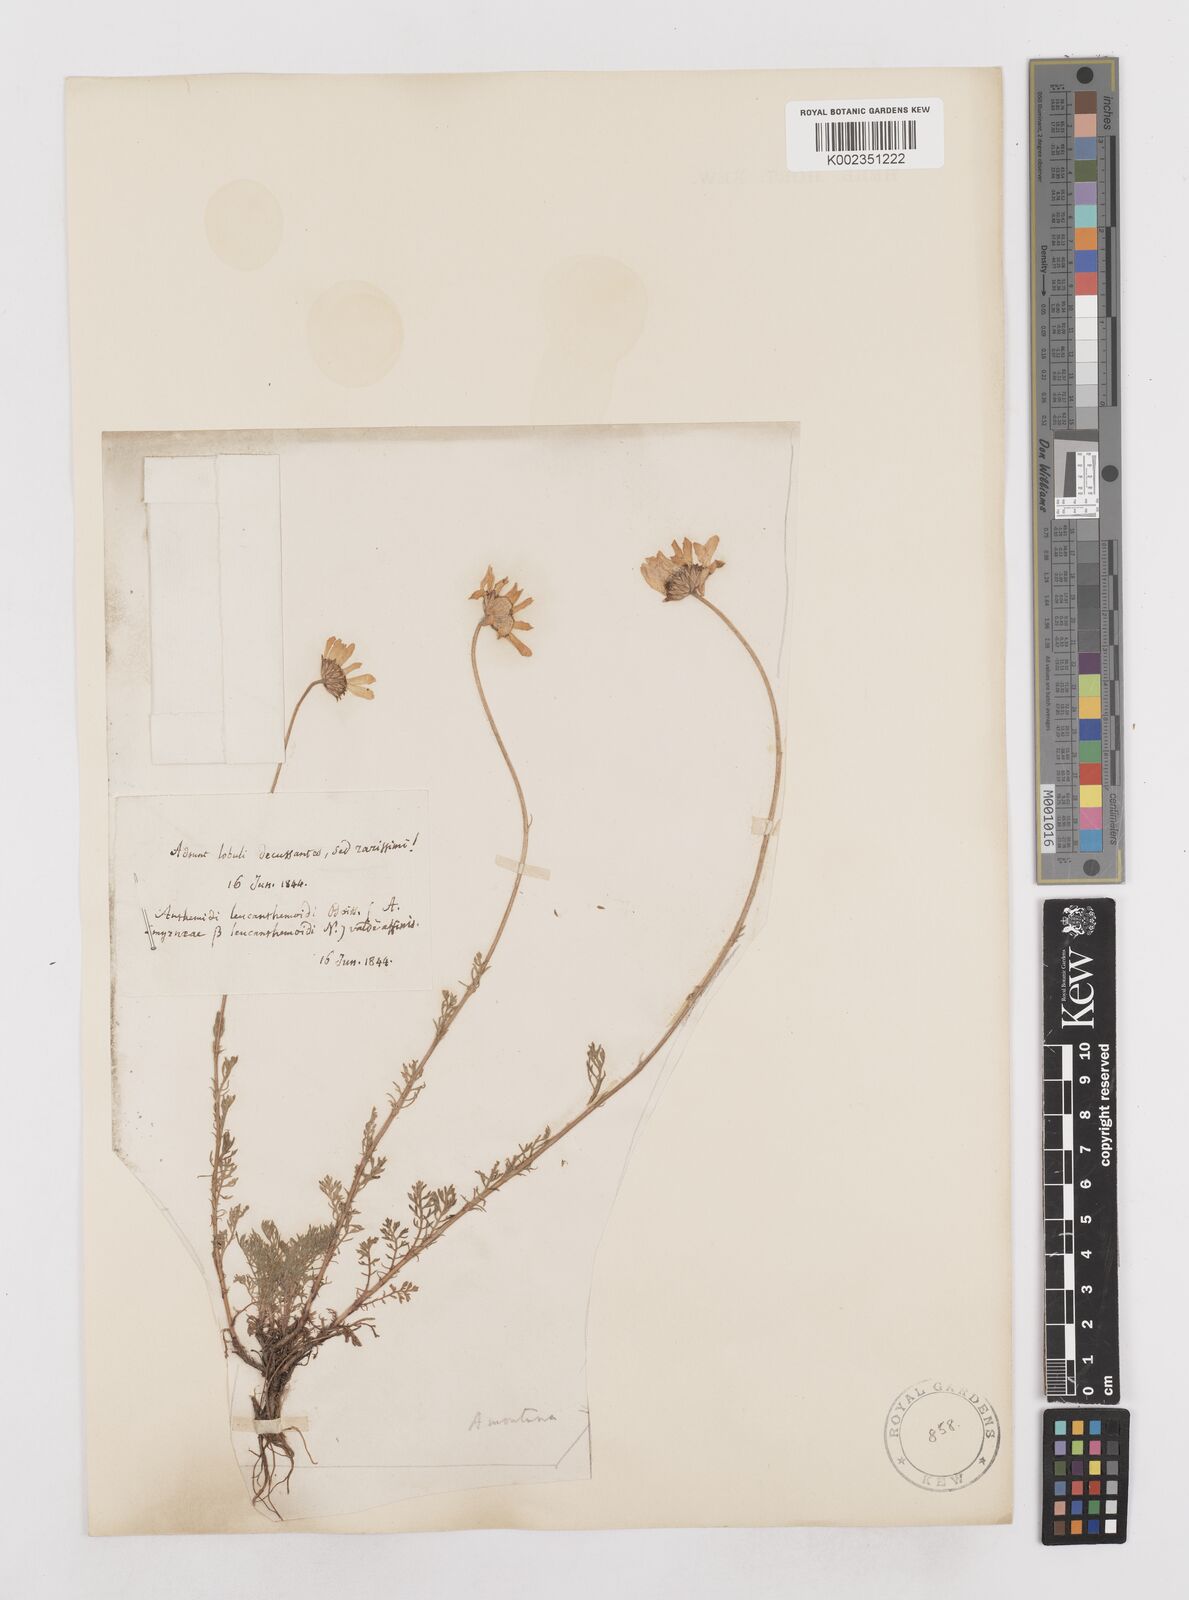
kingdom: Plantae
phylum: Tracheophyta
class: Magnoliopsida
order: Asterales
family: Asteraceae
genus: Anthemis
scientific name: Anthemis cretica
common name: Mountain dog-daisy
